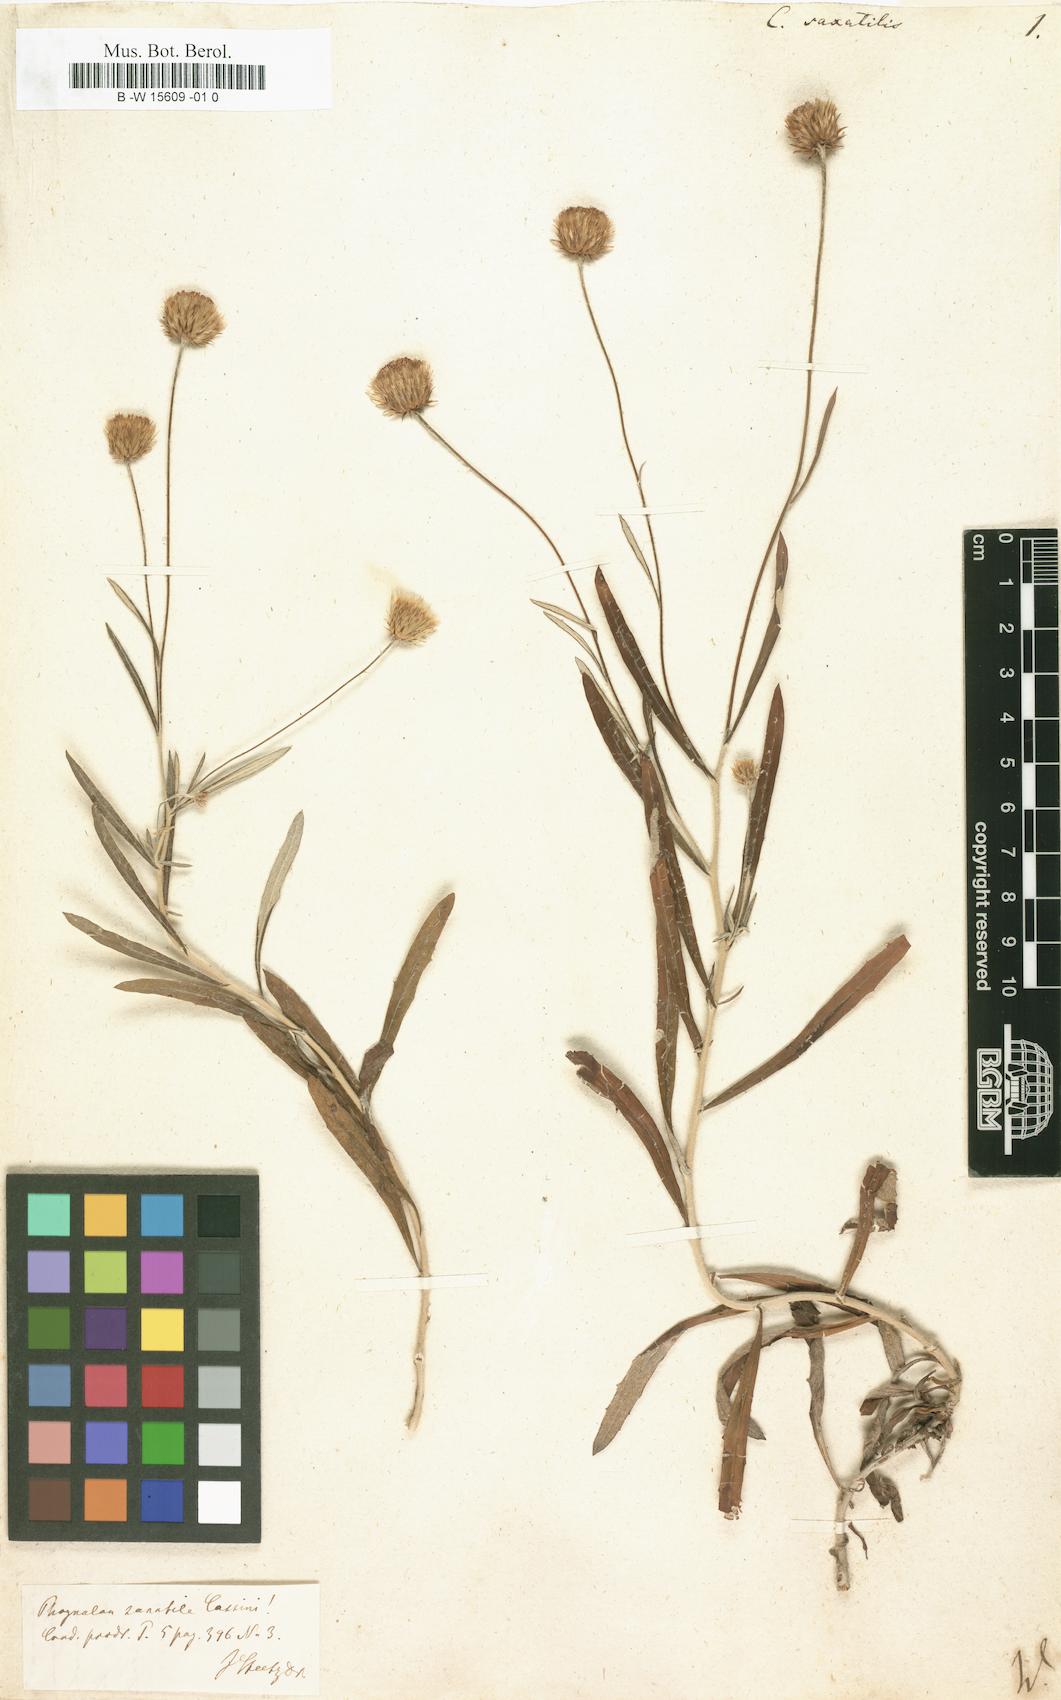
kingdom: Plantae
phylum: Tracheophyta
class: Magnoliopsida
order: Asterales
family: Asteraceae
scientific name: Asteraceae
